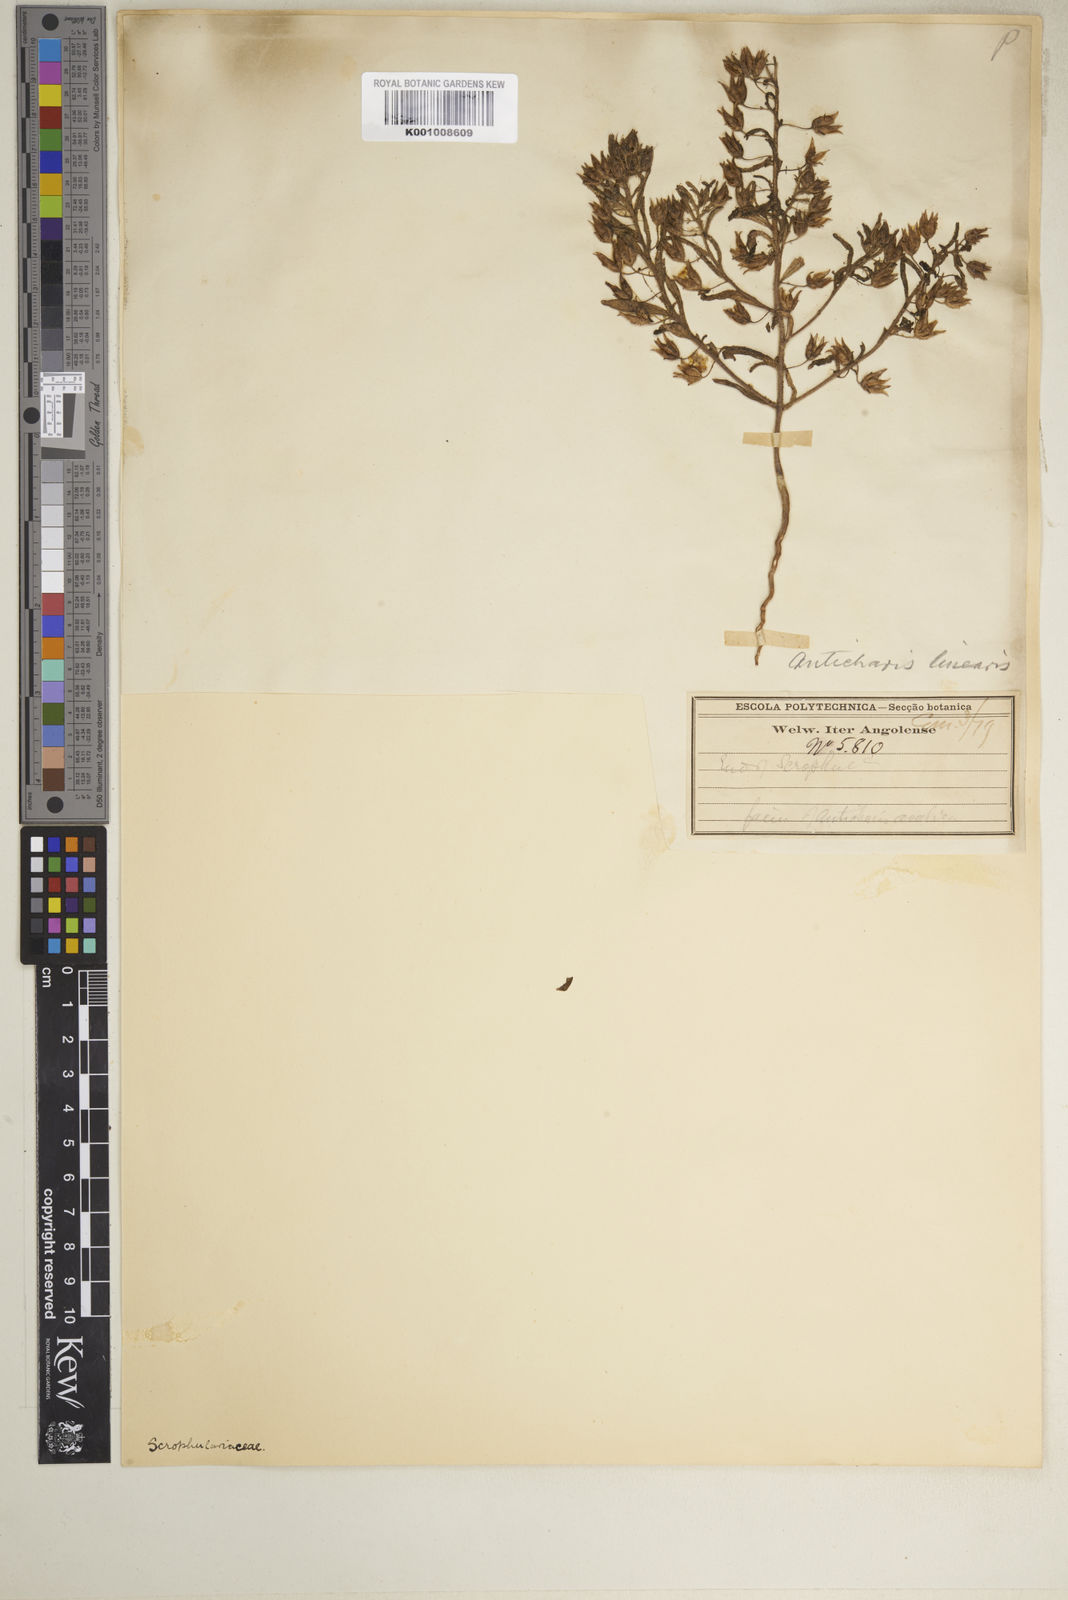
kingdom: Plantae
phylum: Tracheophyta
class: Magnoliopsida
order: Lamiales
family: Scrophulariaceae
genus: Anticharis
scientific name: Anticharis senegalensis
